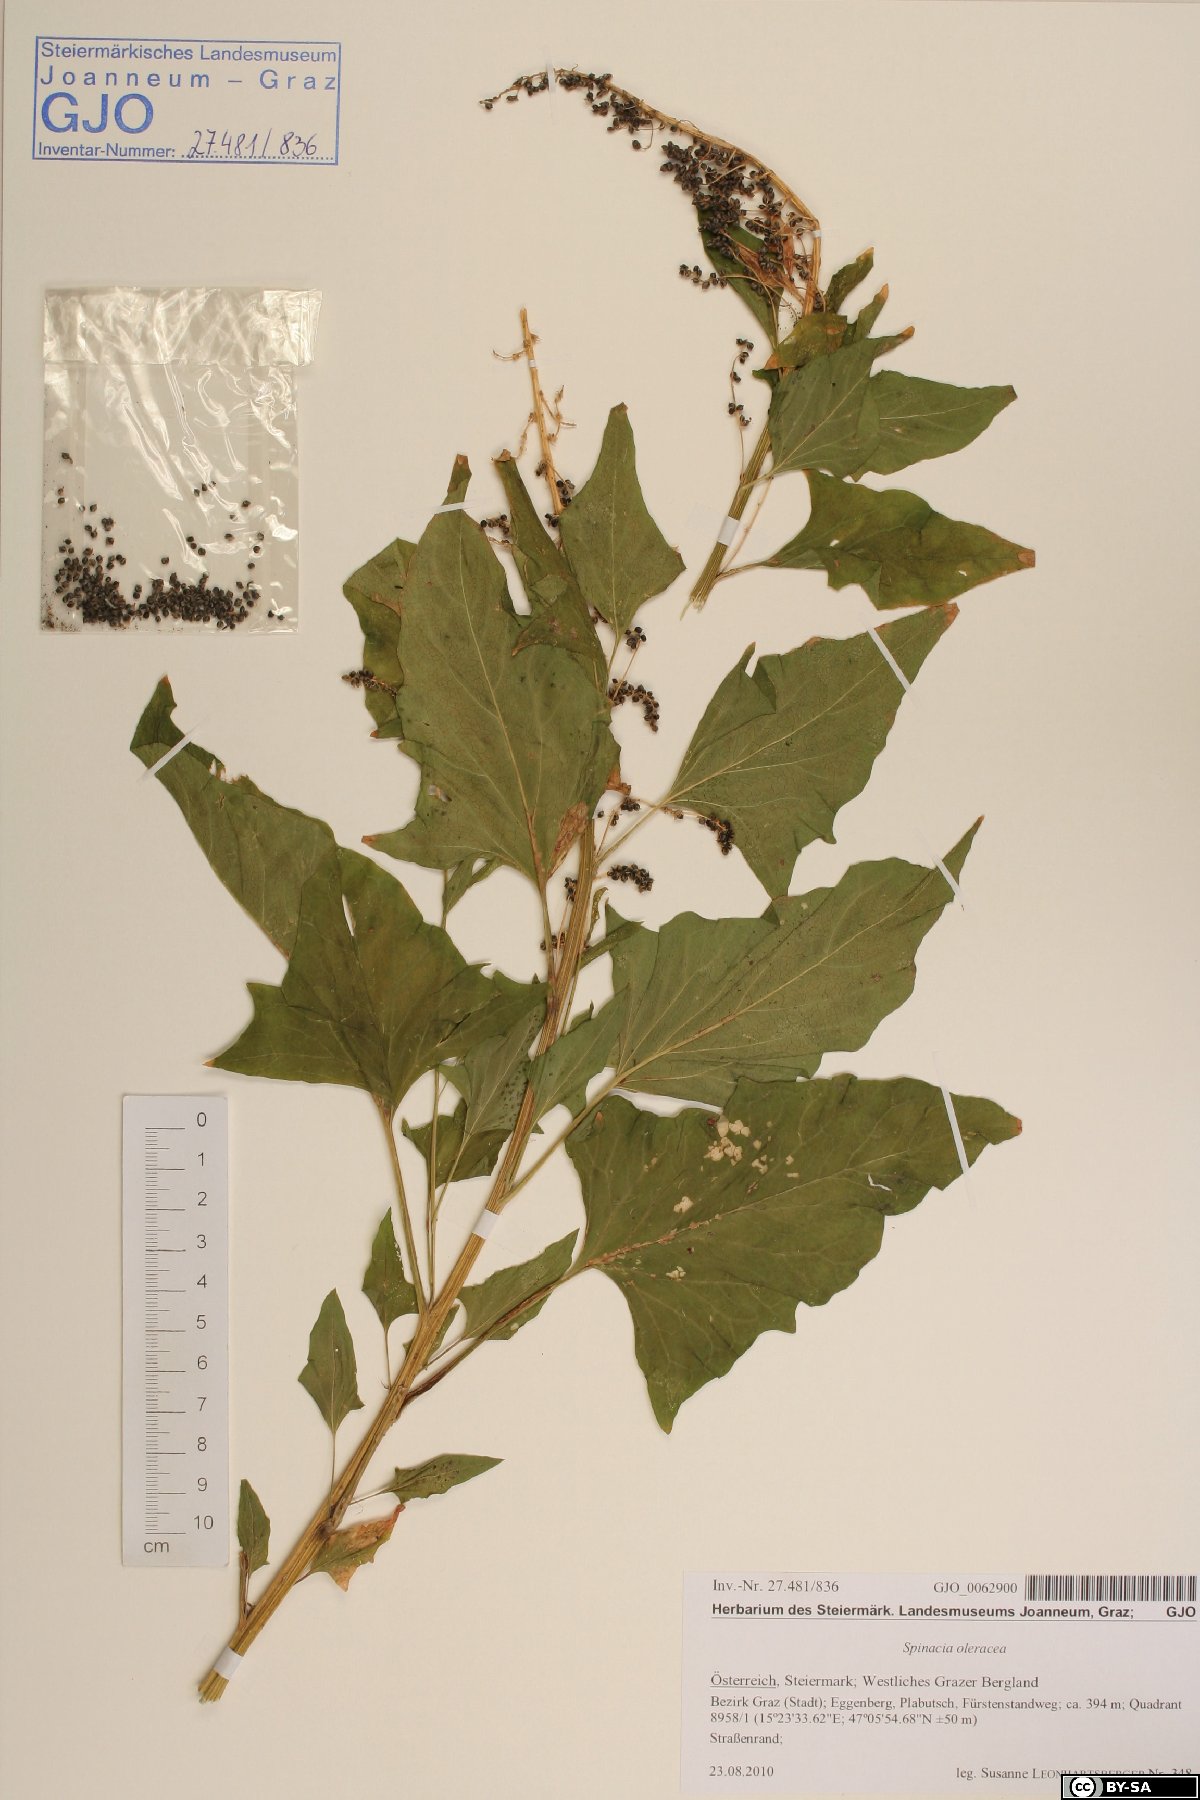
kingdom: Plantae
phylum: Tracheophyta
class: Magnoliopsida
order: Caryophyllales
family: Amaranthaceae
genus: Spinacia
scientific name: Spinacia oleracea
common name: Spinach
